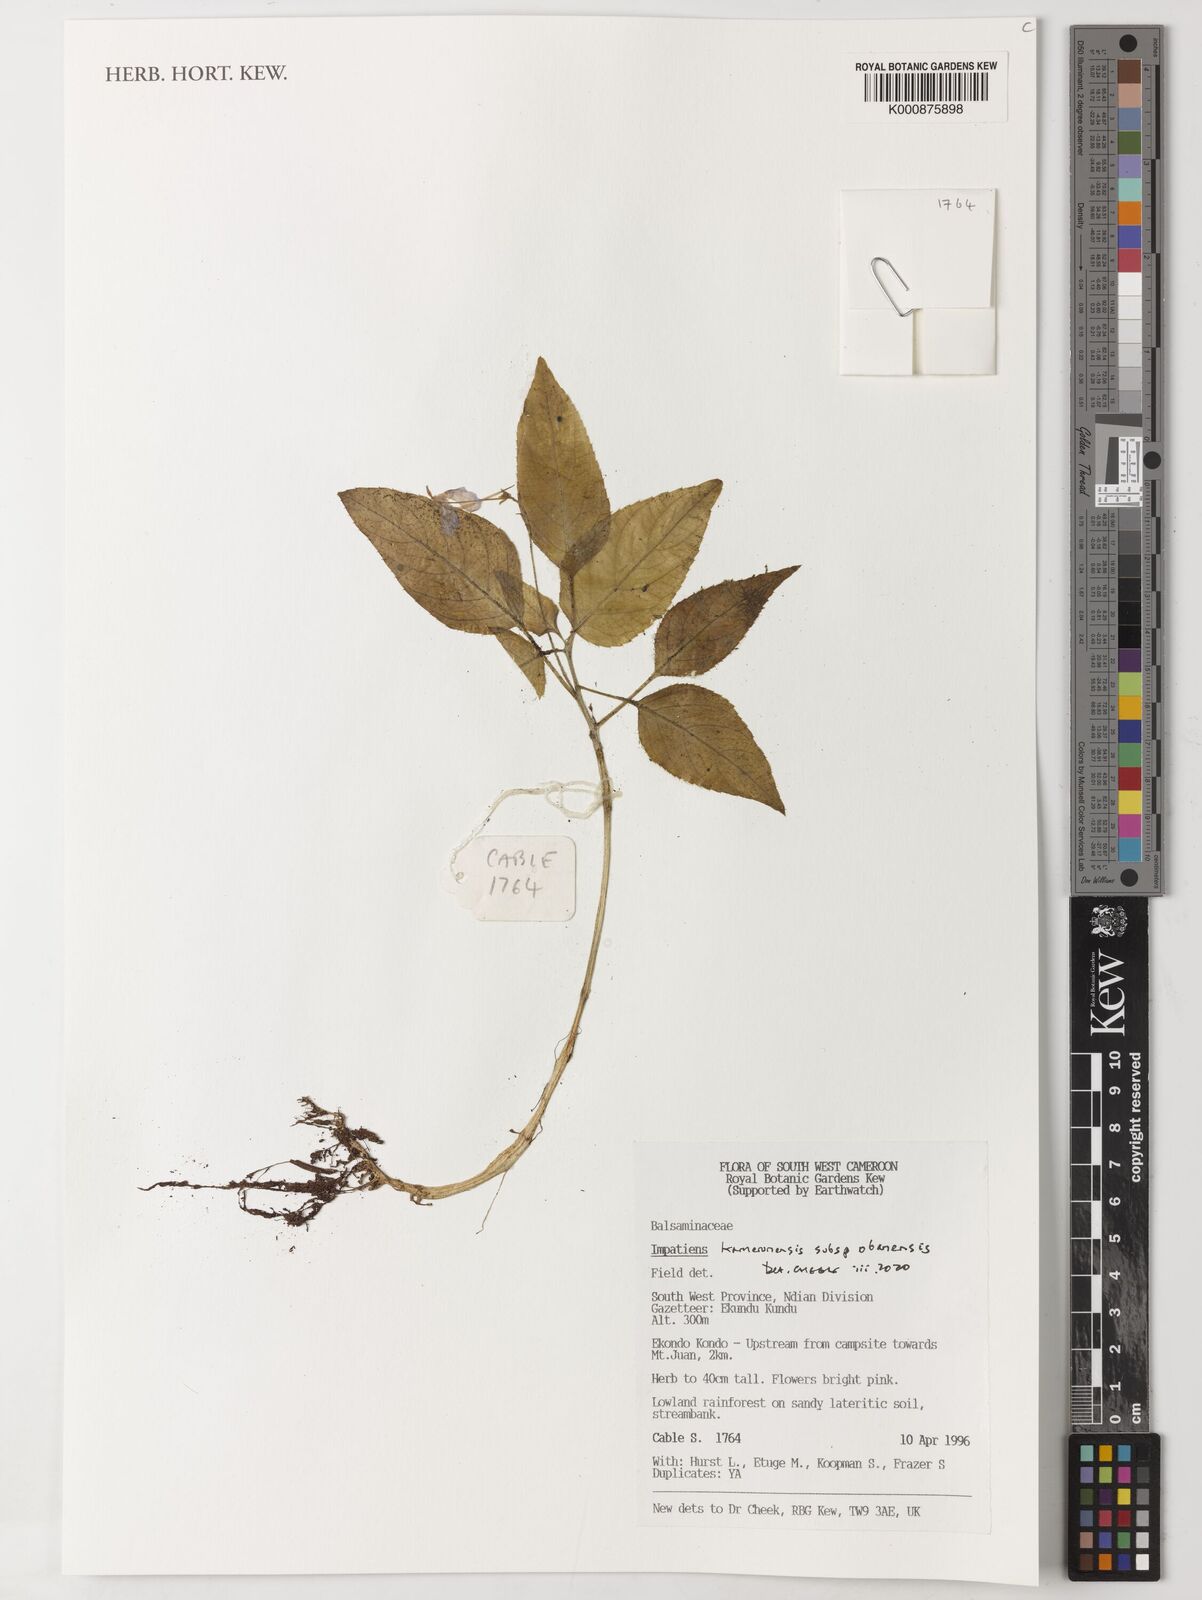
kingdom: Plantae
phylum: Tracheophyta
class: Magnoliopsida
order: Ericales
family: Balsaminaceae
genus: Impatiens
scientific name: Impatiens kamerunensis
